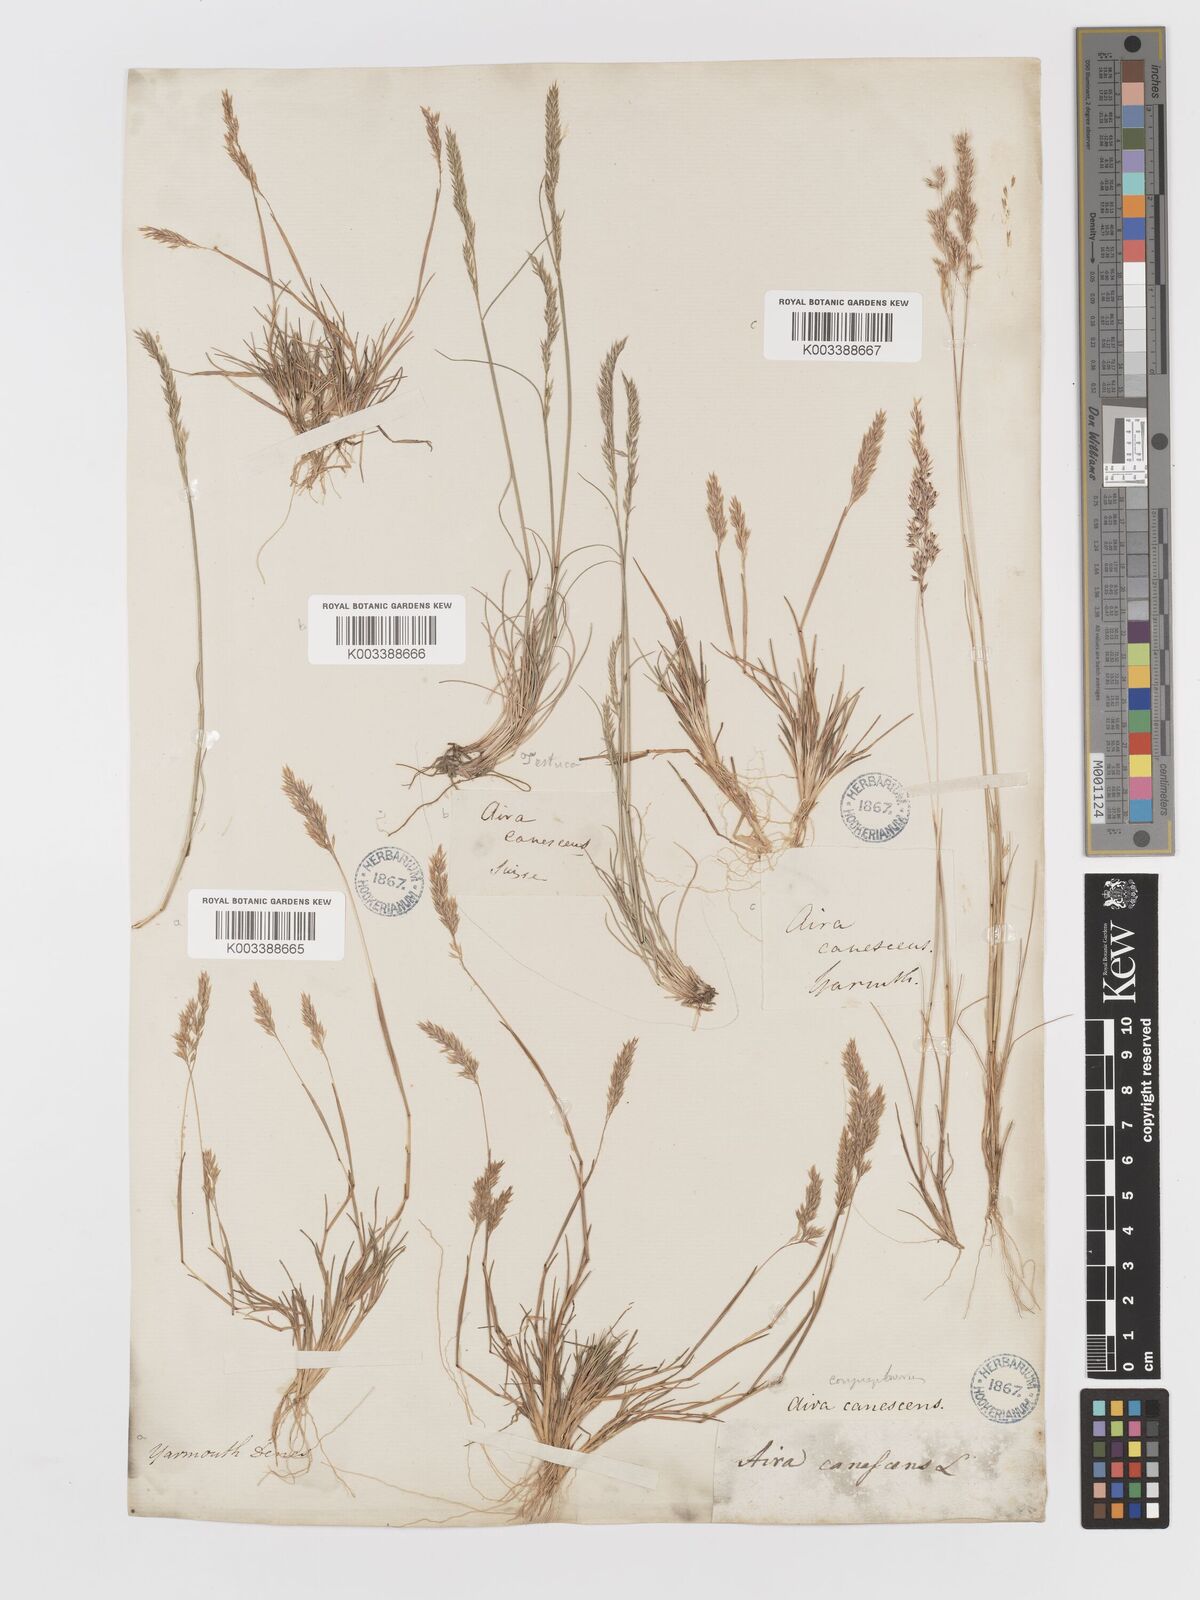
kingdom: Plantae
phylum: Tracheophyta
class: Liliopsida
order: Poales
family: Poaceae
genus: Corynephorus
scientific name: Corynephorus canescens
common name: Grey hair-grass
